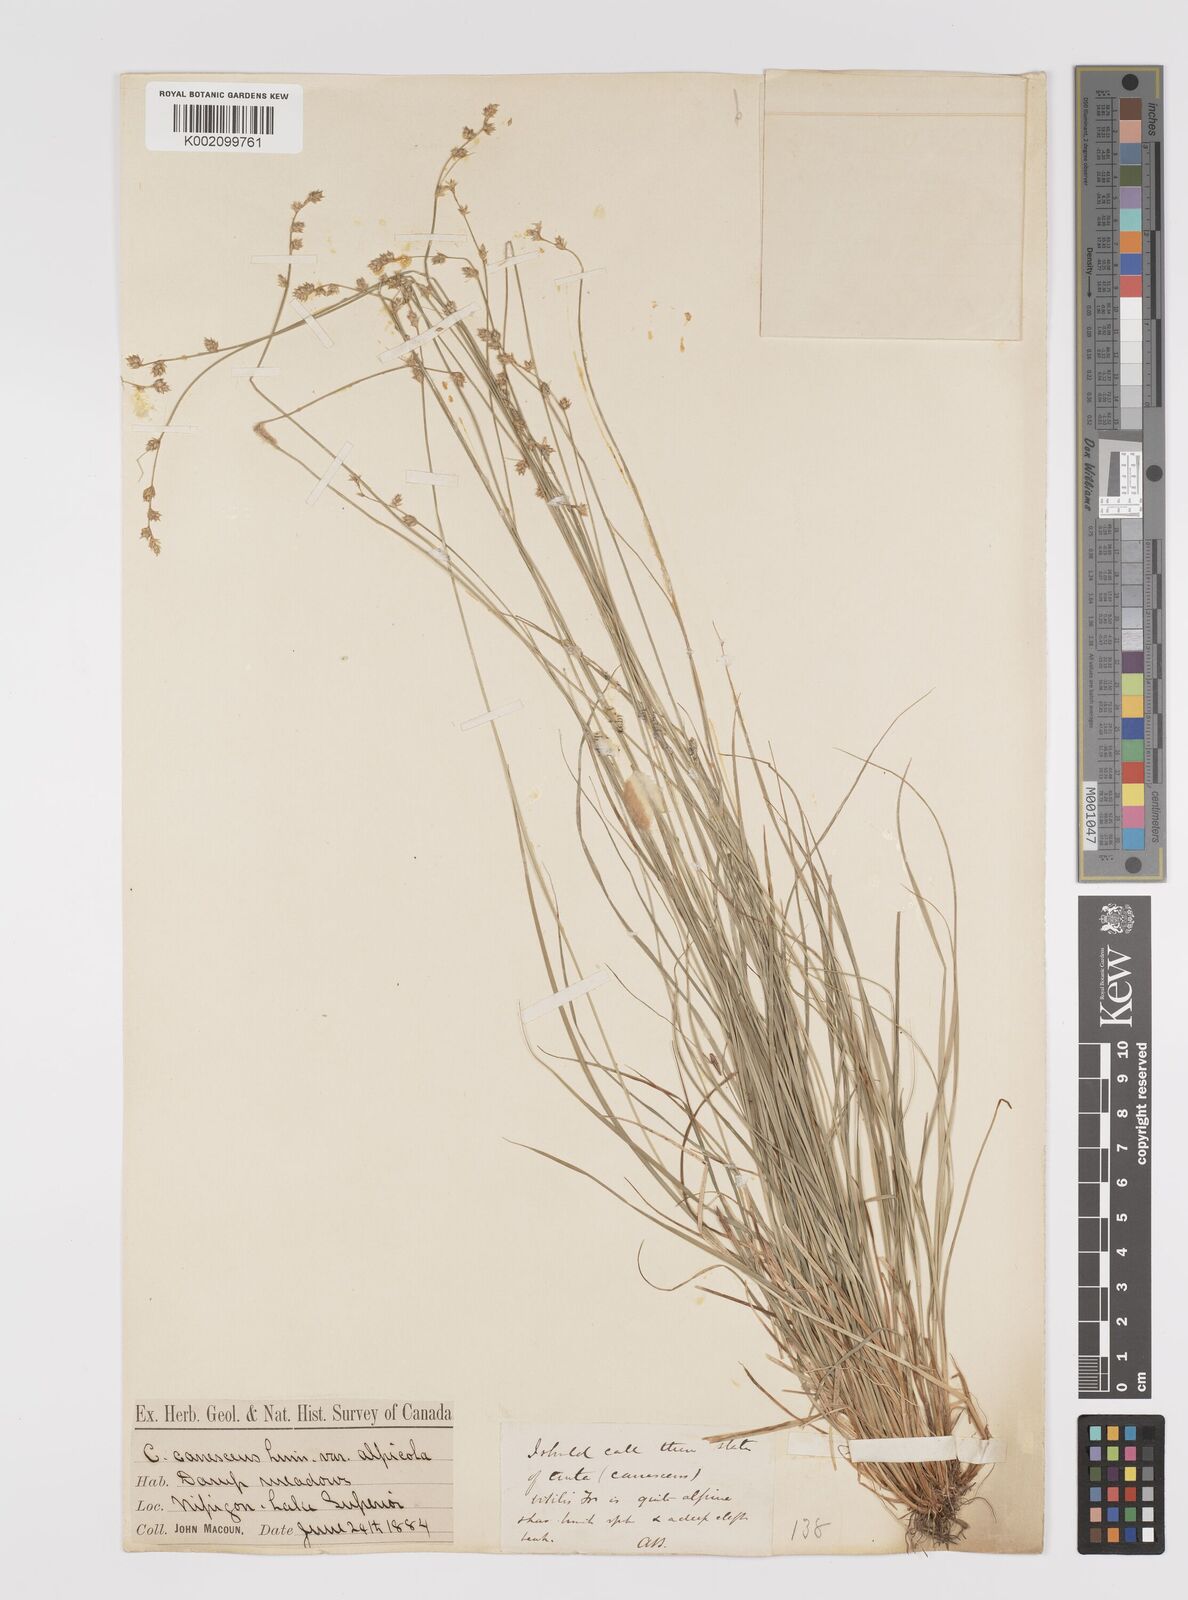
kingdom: Plantae
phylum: Tracheophyta
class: Liliopsida
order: Poales
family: Cyperaceae
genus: Carex
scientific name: Carex curta
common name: White sedge
